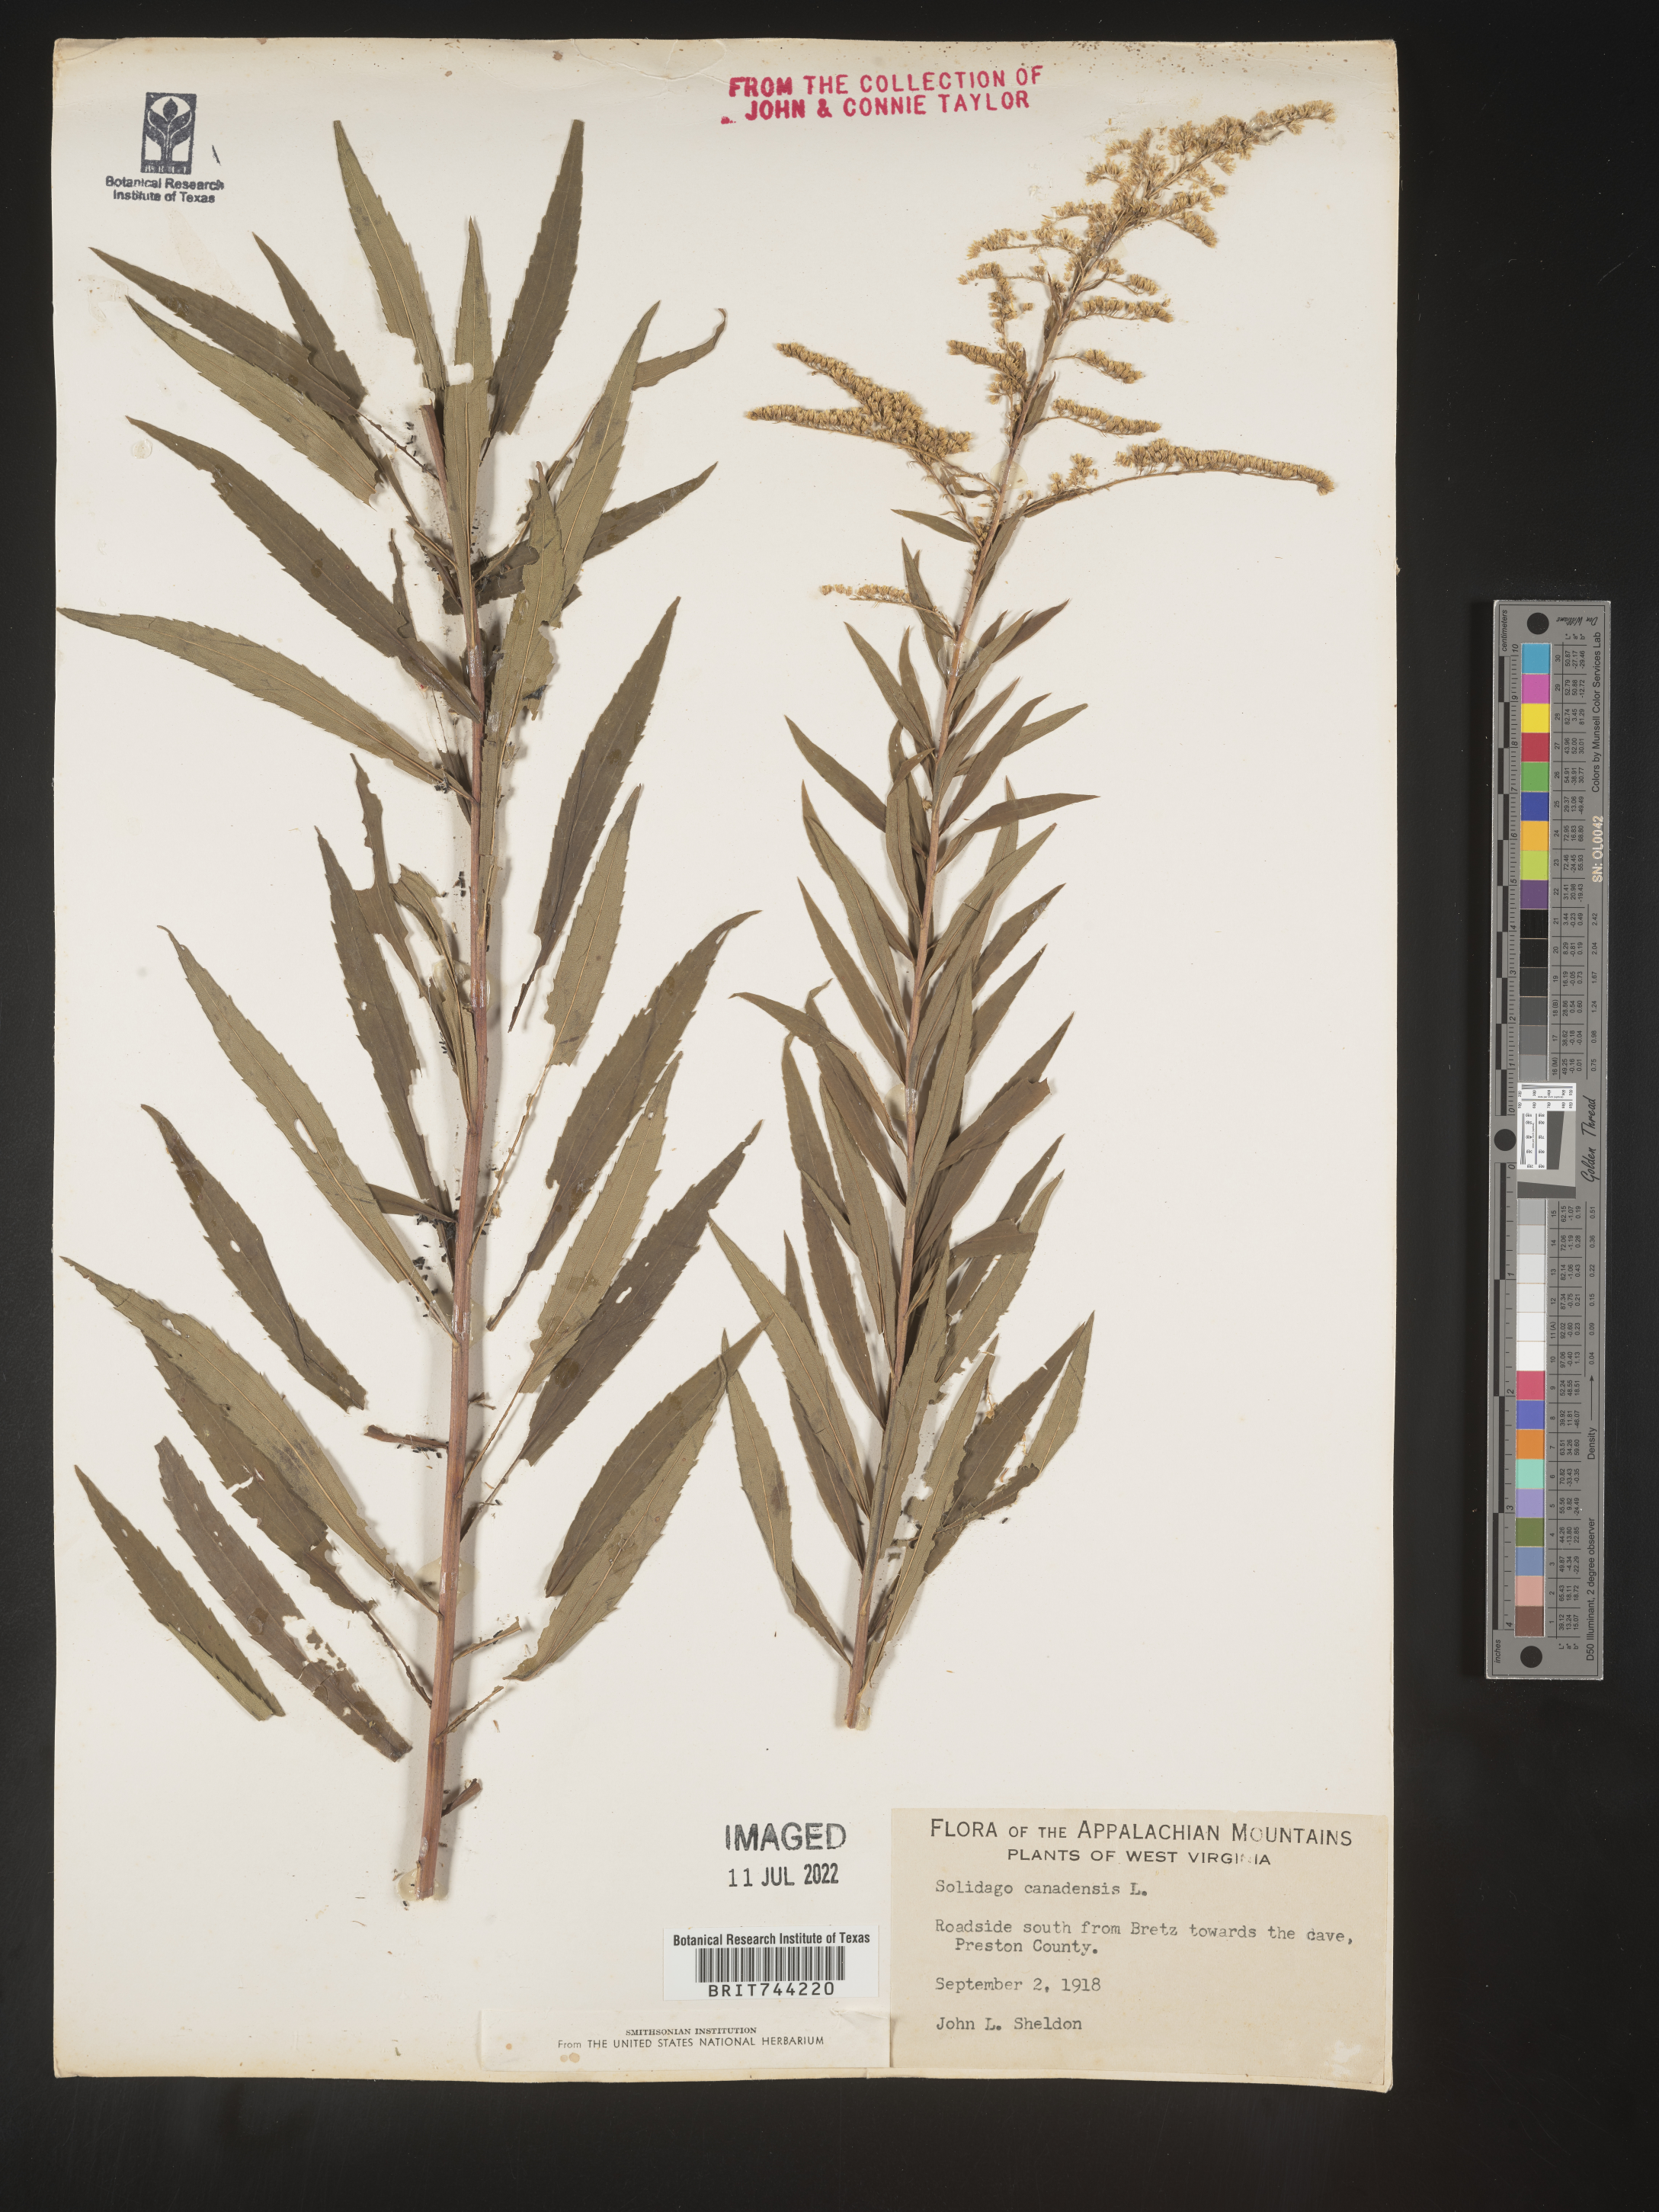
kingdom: Plantae
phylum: Tracheophyta
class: Magnoliopsida
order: Asterales
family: Asteraceae
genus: Solidago
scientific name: Solidago canadensis
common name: Canada goldenrod
